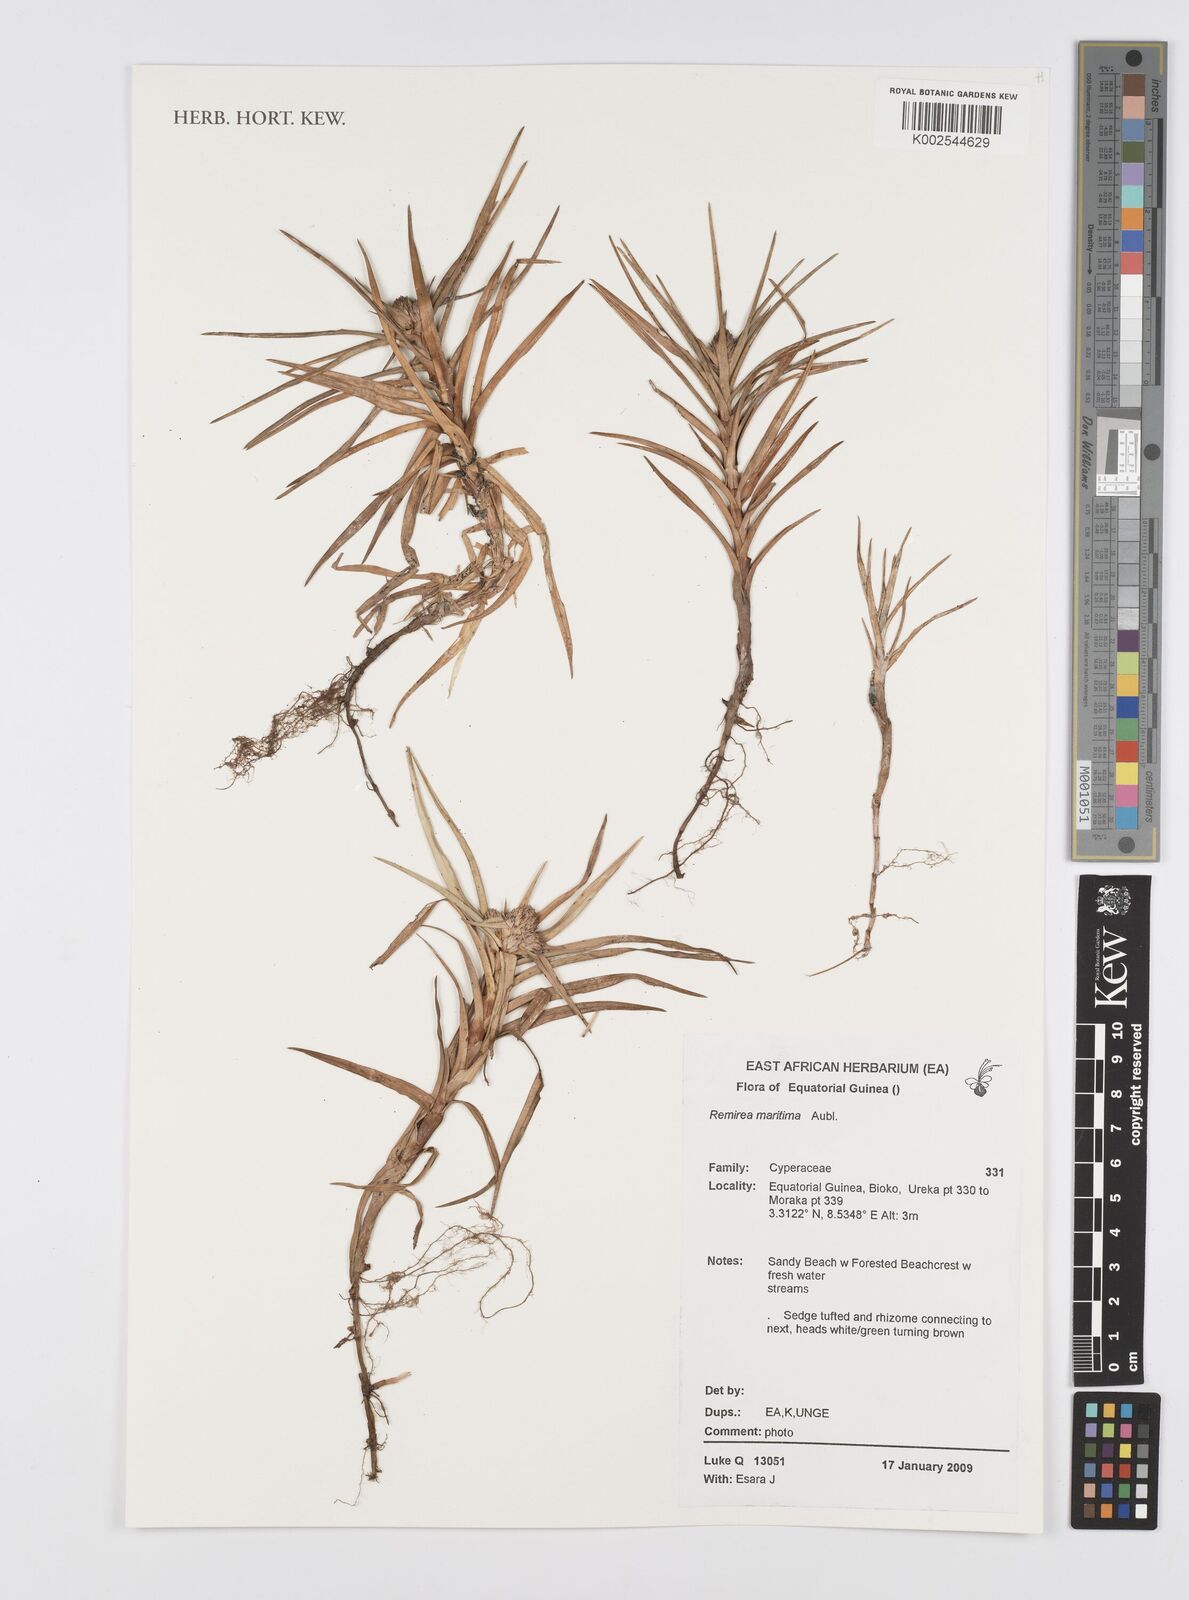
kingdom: Plantae
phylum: Tracheophyta
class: Liliopsida
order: Poales
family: Cyperaceae
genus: Cyperus
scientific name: Cyperus
